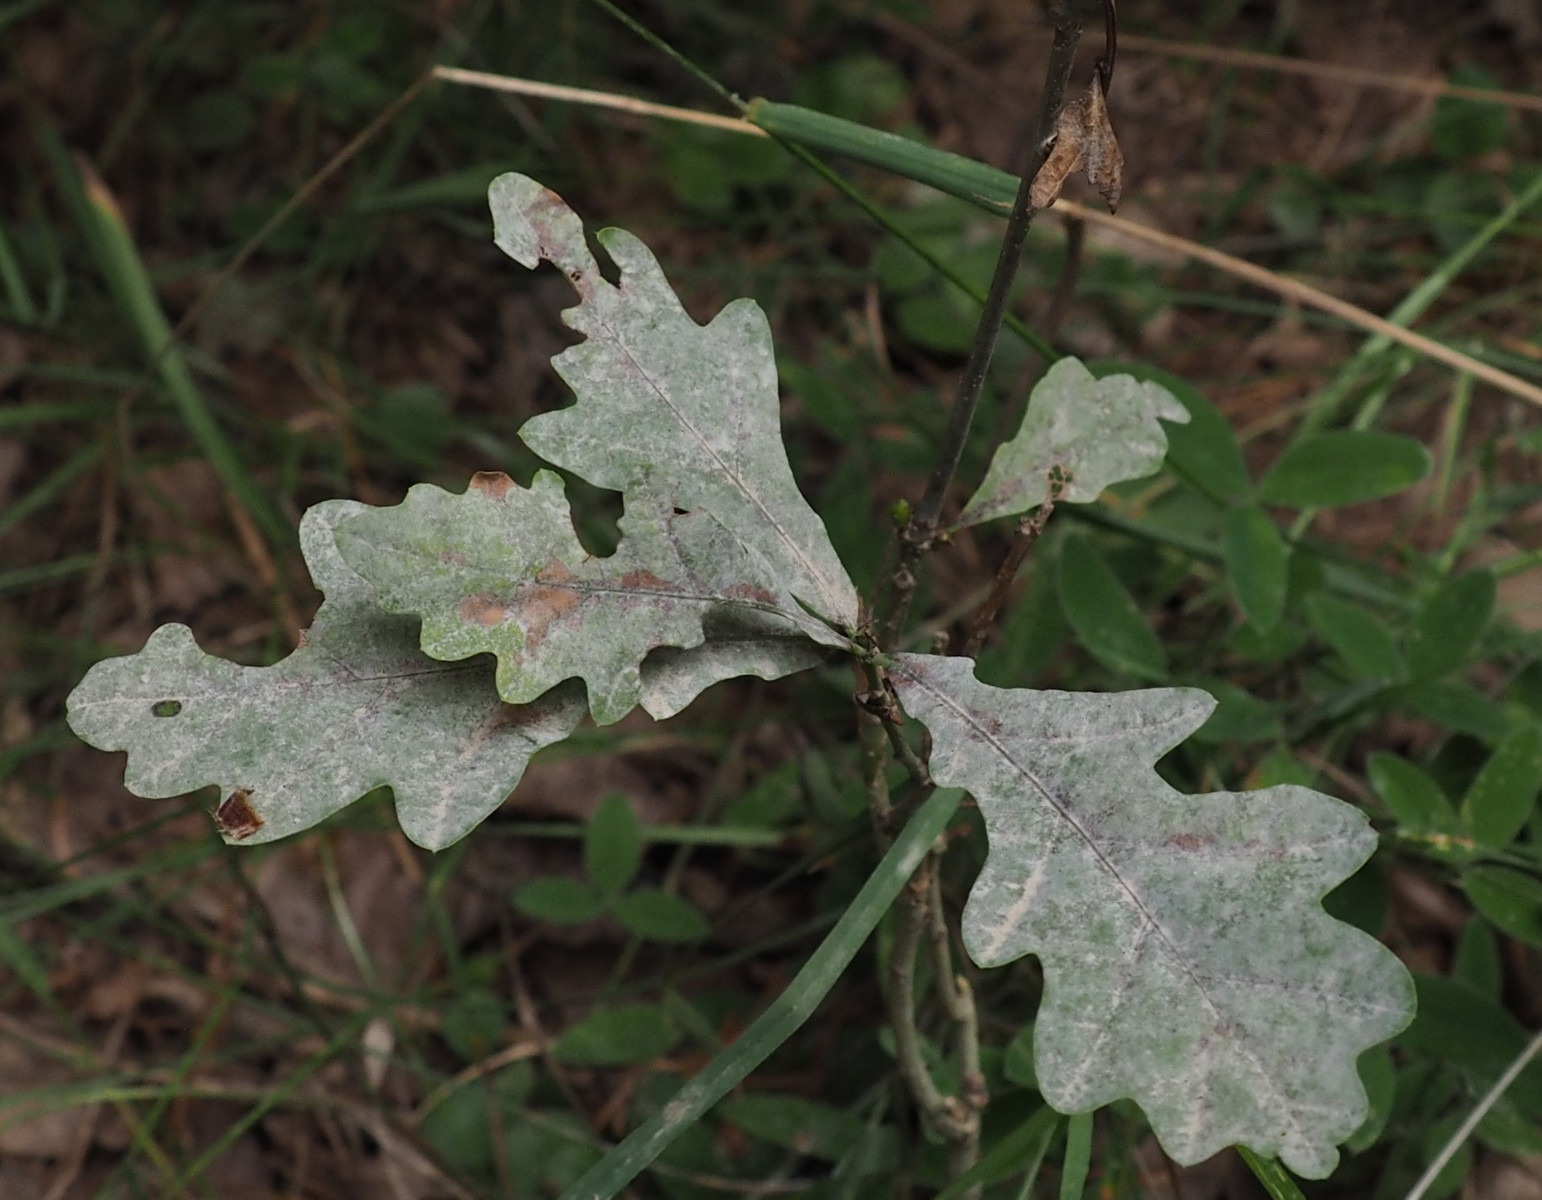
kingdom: Fungi
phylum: Ascomycota
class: Leotiomycetes
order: Helotiales
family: Erysiphaceae
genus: Erysiphe
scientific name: Erysiphe alphitoides
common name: ege-meldug
